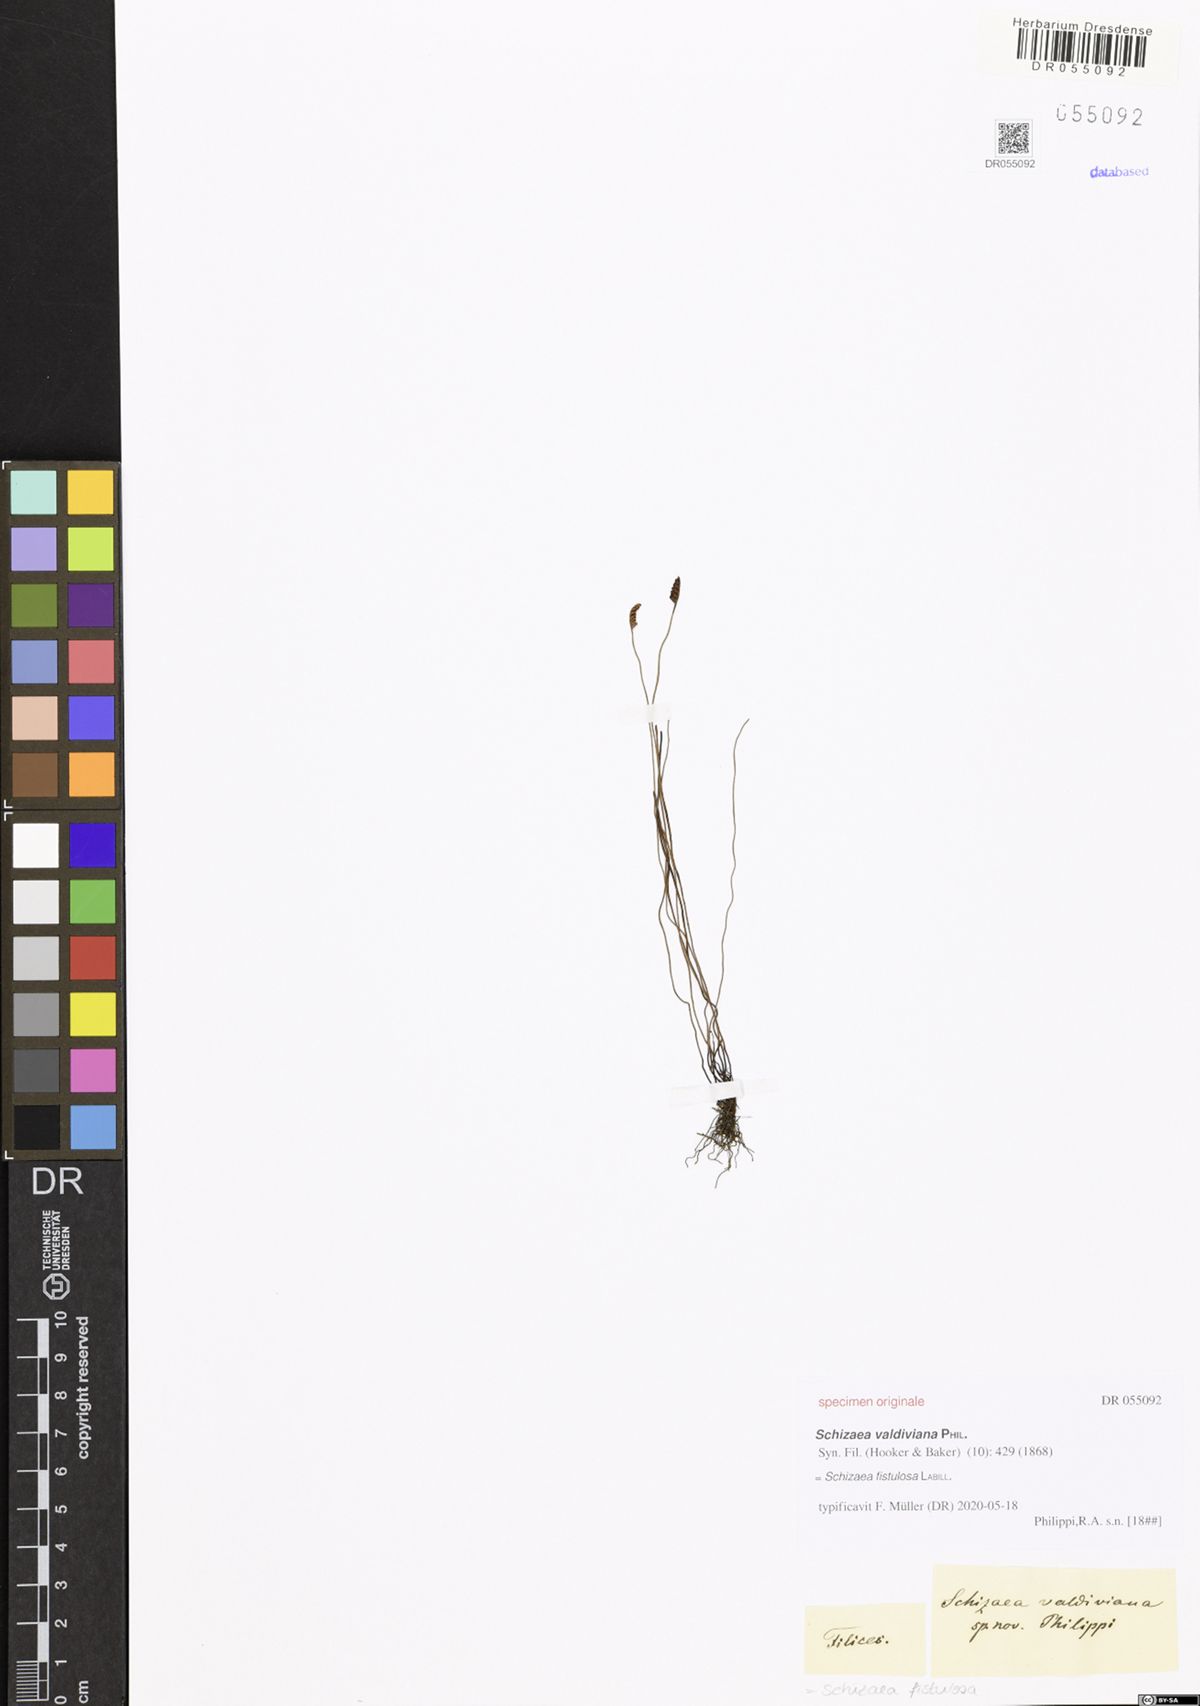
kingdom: Plantae
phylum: Tracheophyta
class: Polypodiopsida
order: Schizaeales
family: Schizaeaceae
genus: Microschizaea
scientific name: Microschizaea fistulosa
